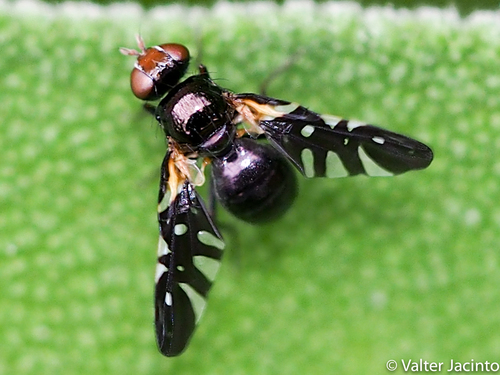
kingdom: Animalia
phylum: Arthropoda
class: Insecta
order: Diptera
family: Tephritidae
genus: Oxyaciura
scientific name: Oxyaciura tibialis
